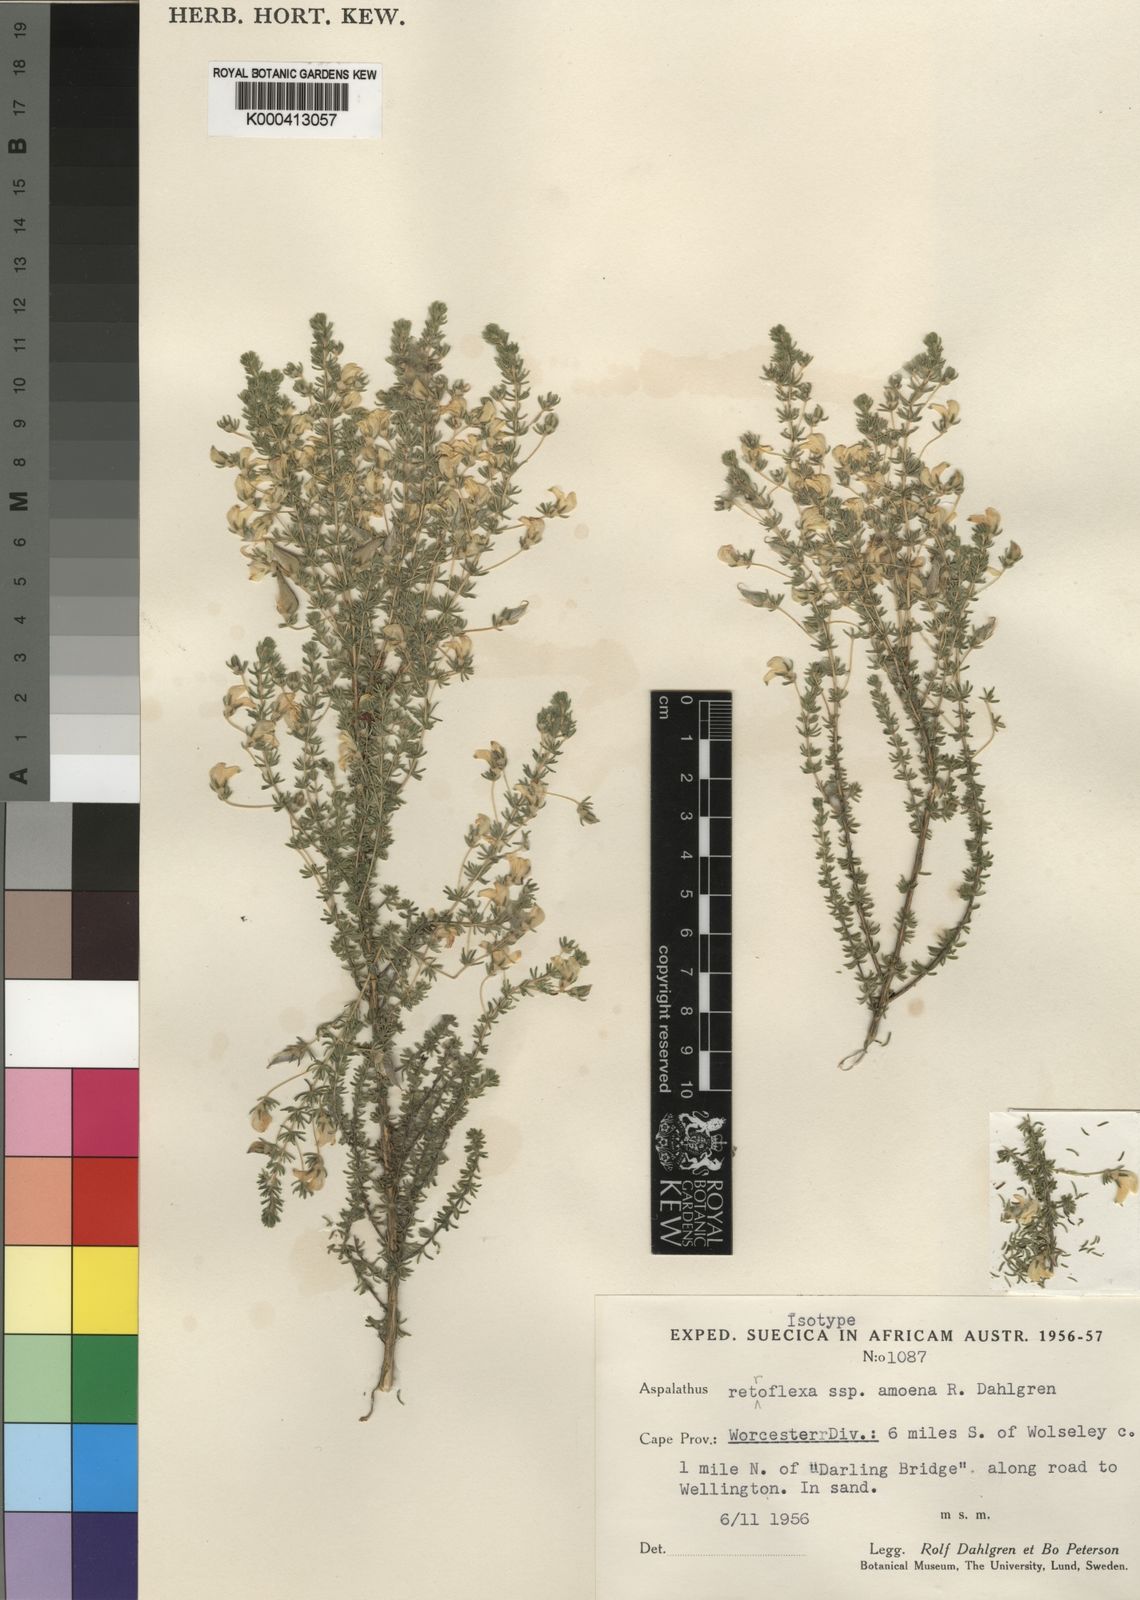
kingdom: Plantae
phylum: Tracheophyta
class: Magnoliopsida
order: Fabales
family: Fabaceae
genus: Aspalathus
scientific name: Aspalathus amoena
